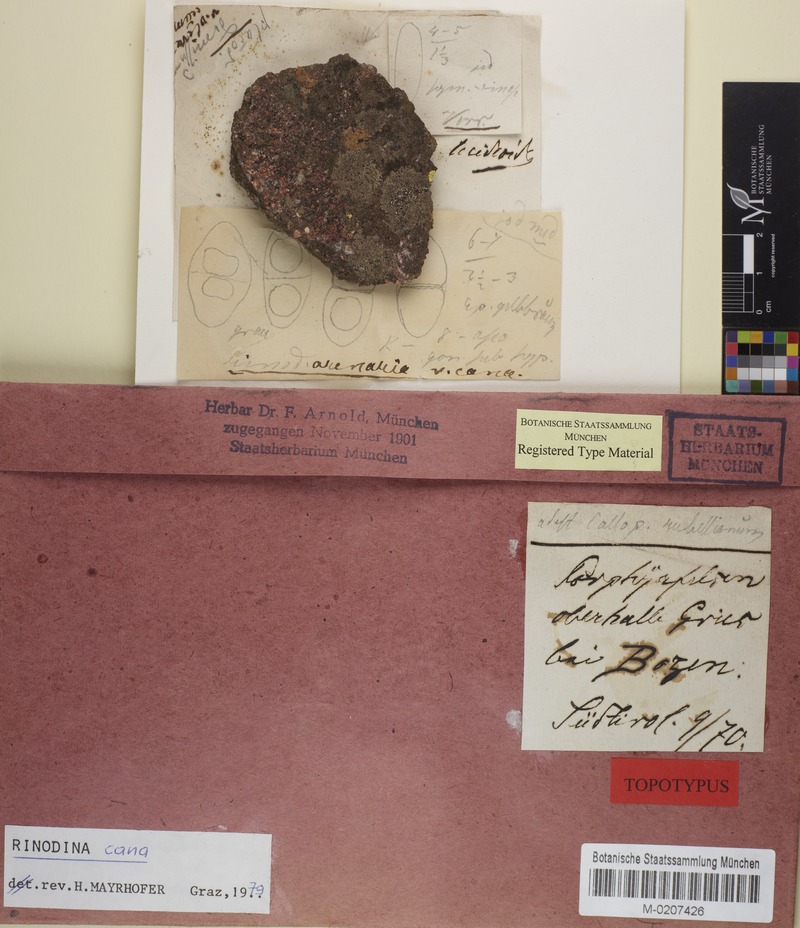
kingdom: Fungi
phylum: Ascomycota
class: Lecanoromycetes
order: Caliciales
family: Physciaceae
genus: Rinodina
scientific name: Rinodina cana
